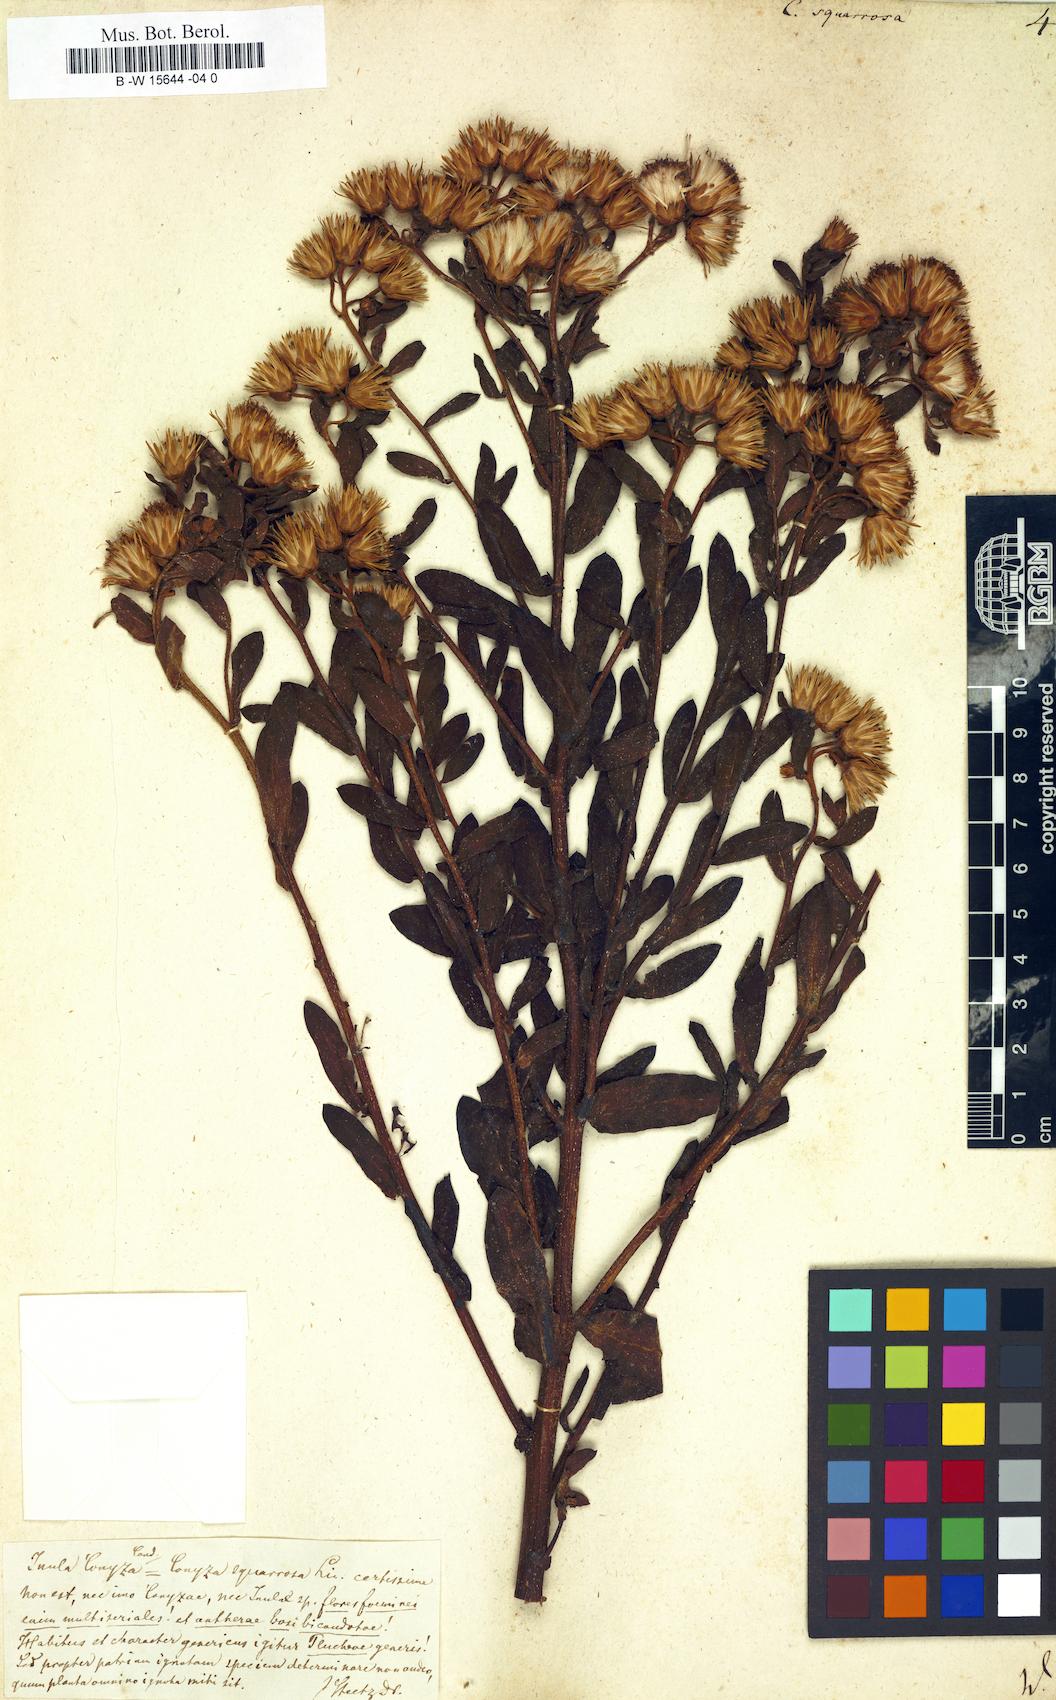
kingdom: Plantae
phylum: Tracheophyta
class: Magnoliopsida
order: Asterales
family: Asteraceae
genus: Conyza
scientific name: Conyza squarrosa
